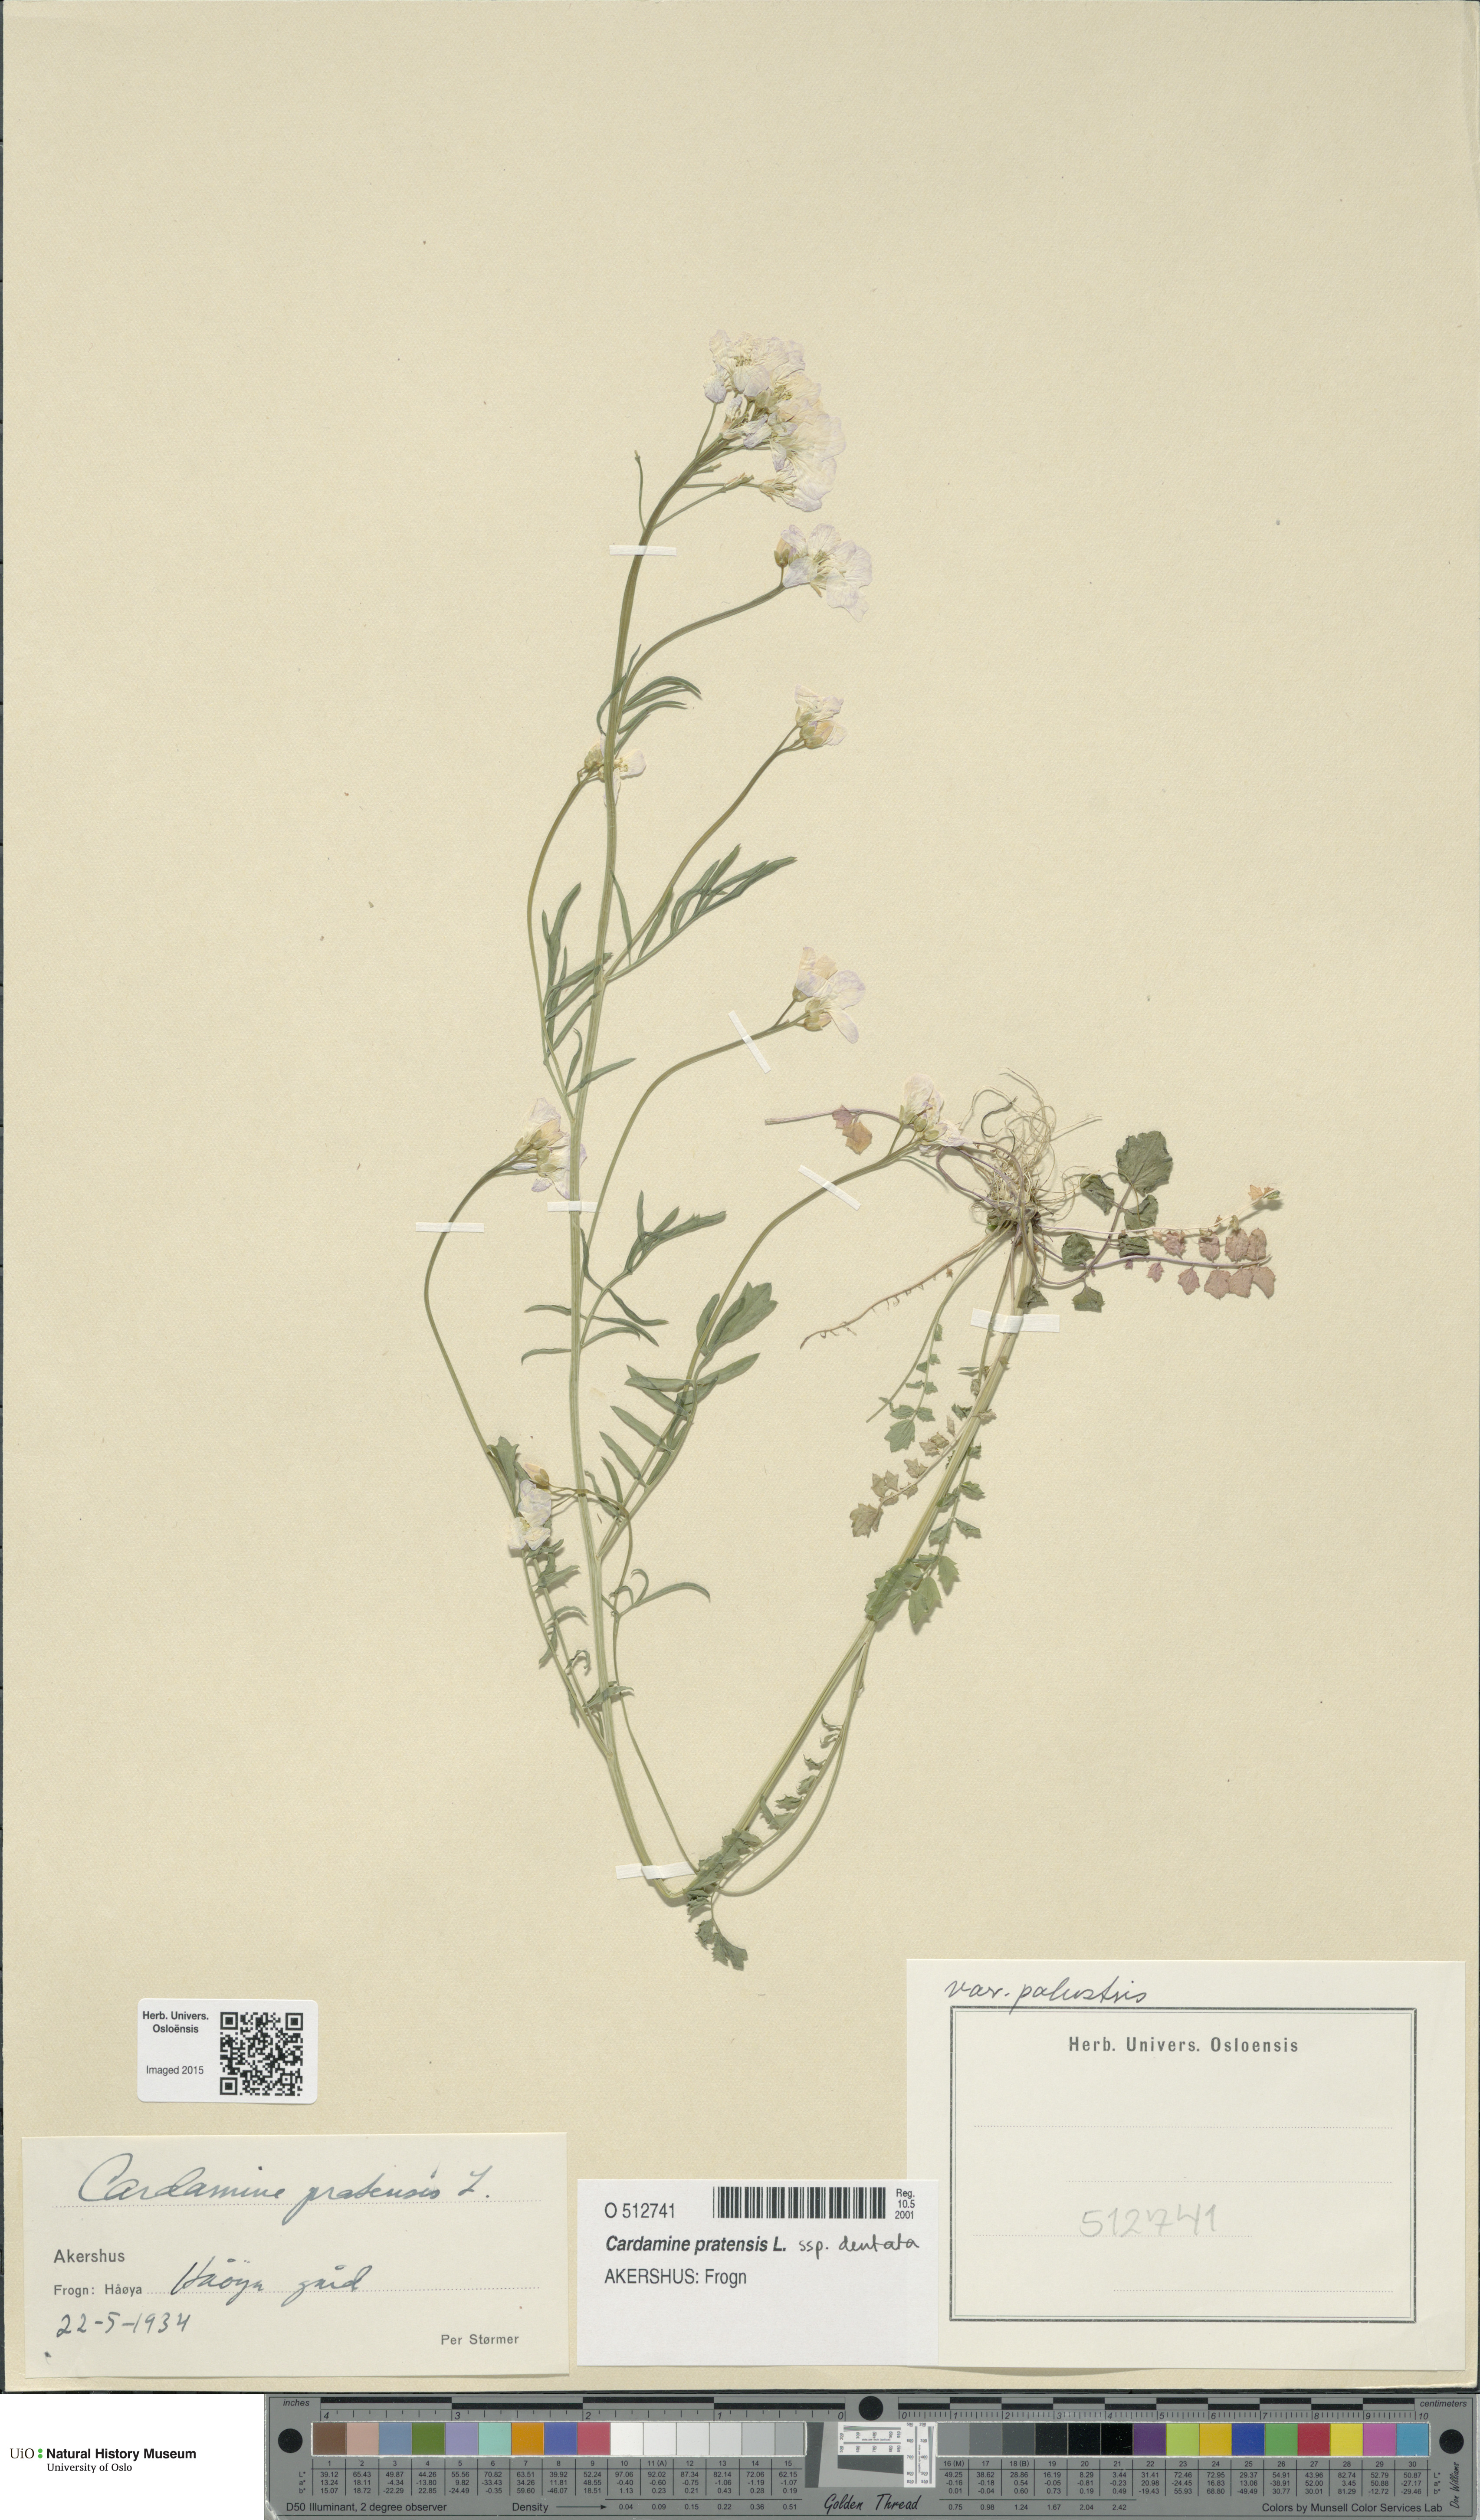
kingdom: Plantae
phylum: Tracheophyta
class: Magnoliopsida
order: Brassicales
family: Brassicaceae
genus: Cardamine
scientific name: Cardamine dentata
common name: Toothed bittercress
